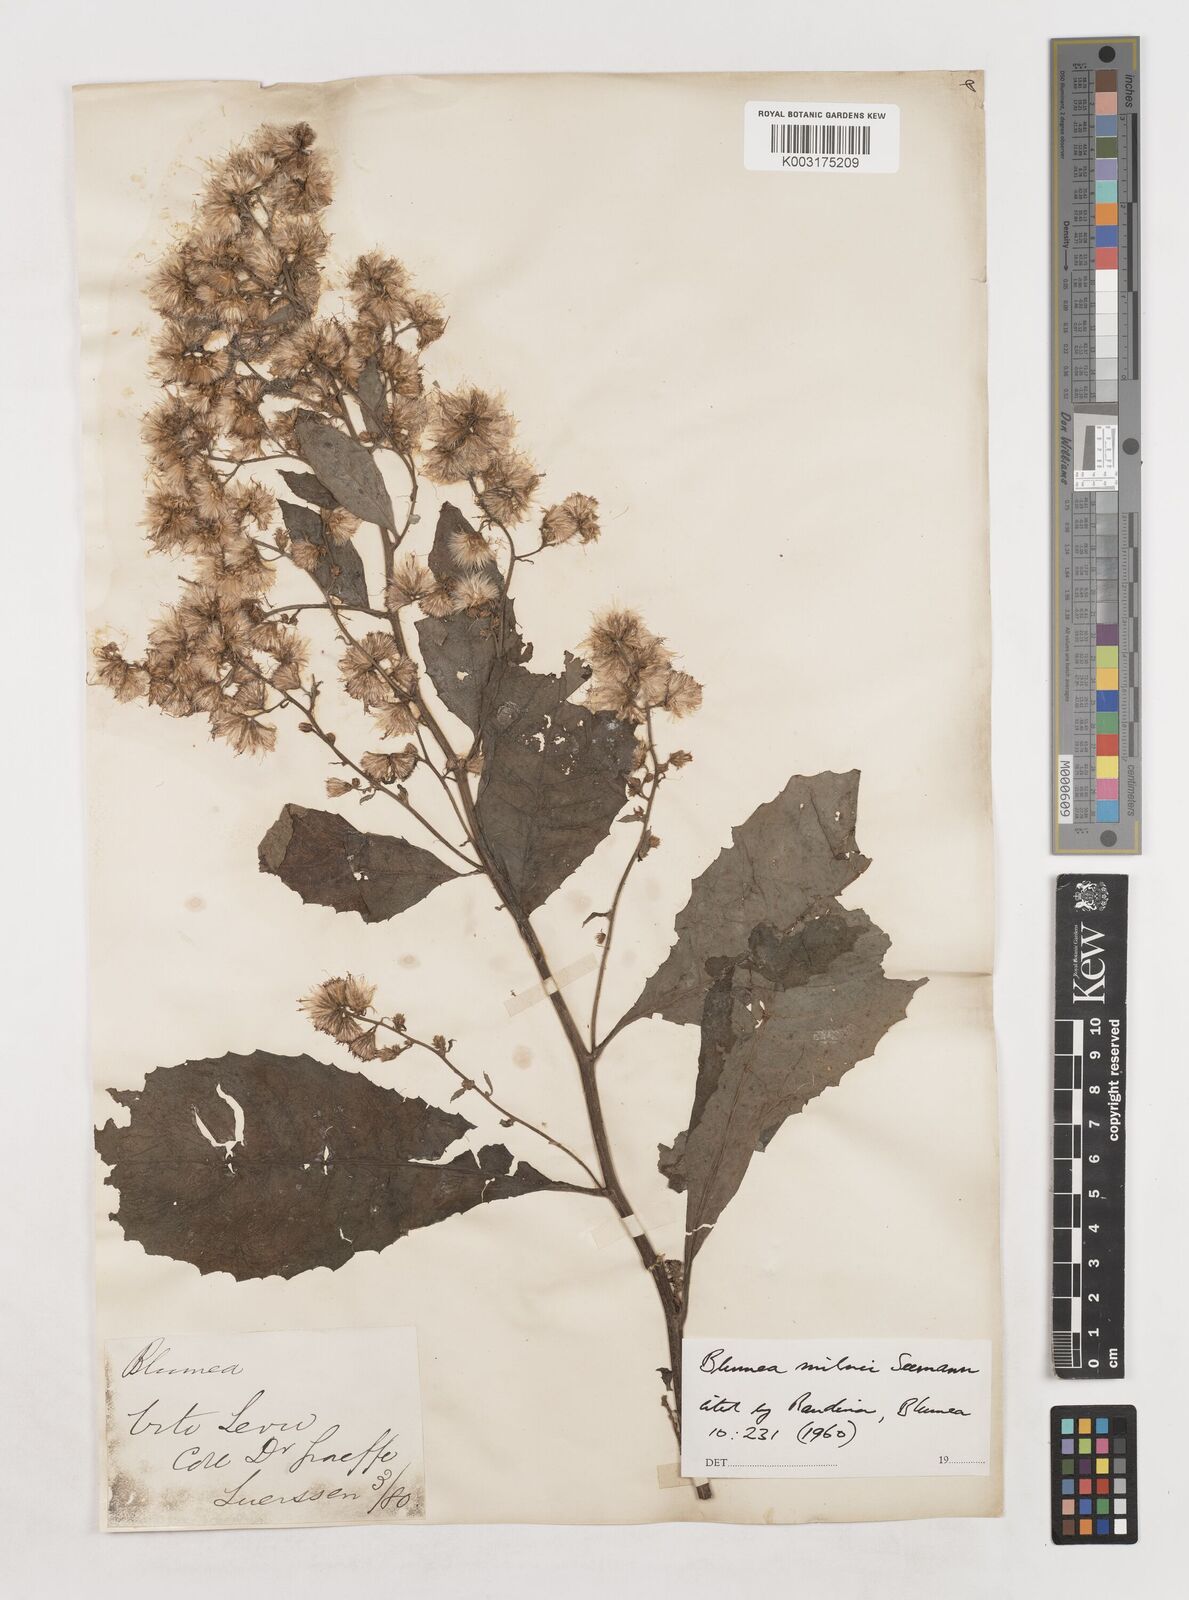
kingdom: Plantae
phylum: Tracheophyta
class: Magnoliopsida
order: Asterales
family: Asteraceae
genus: Blumea
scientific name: Blumea milnei
